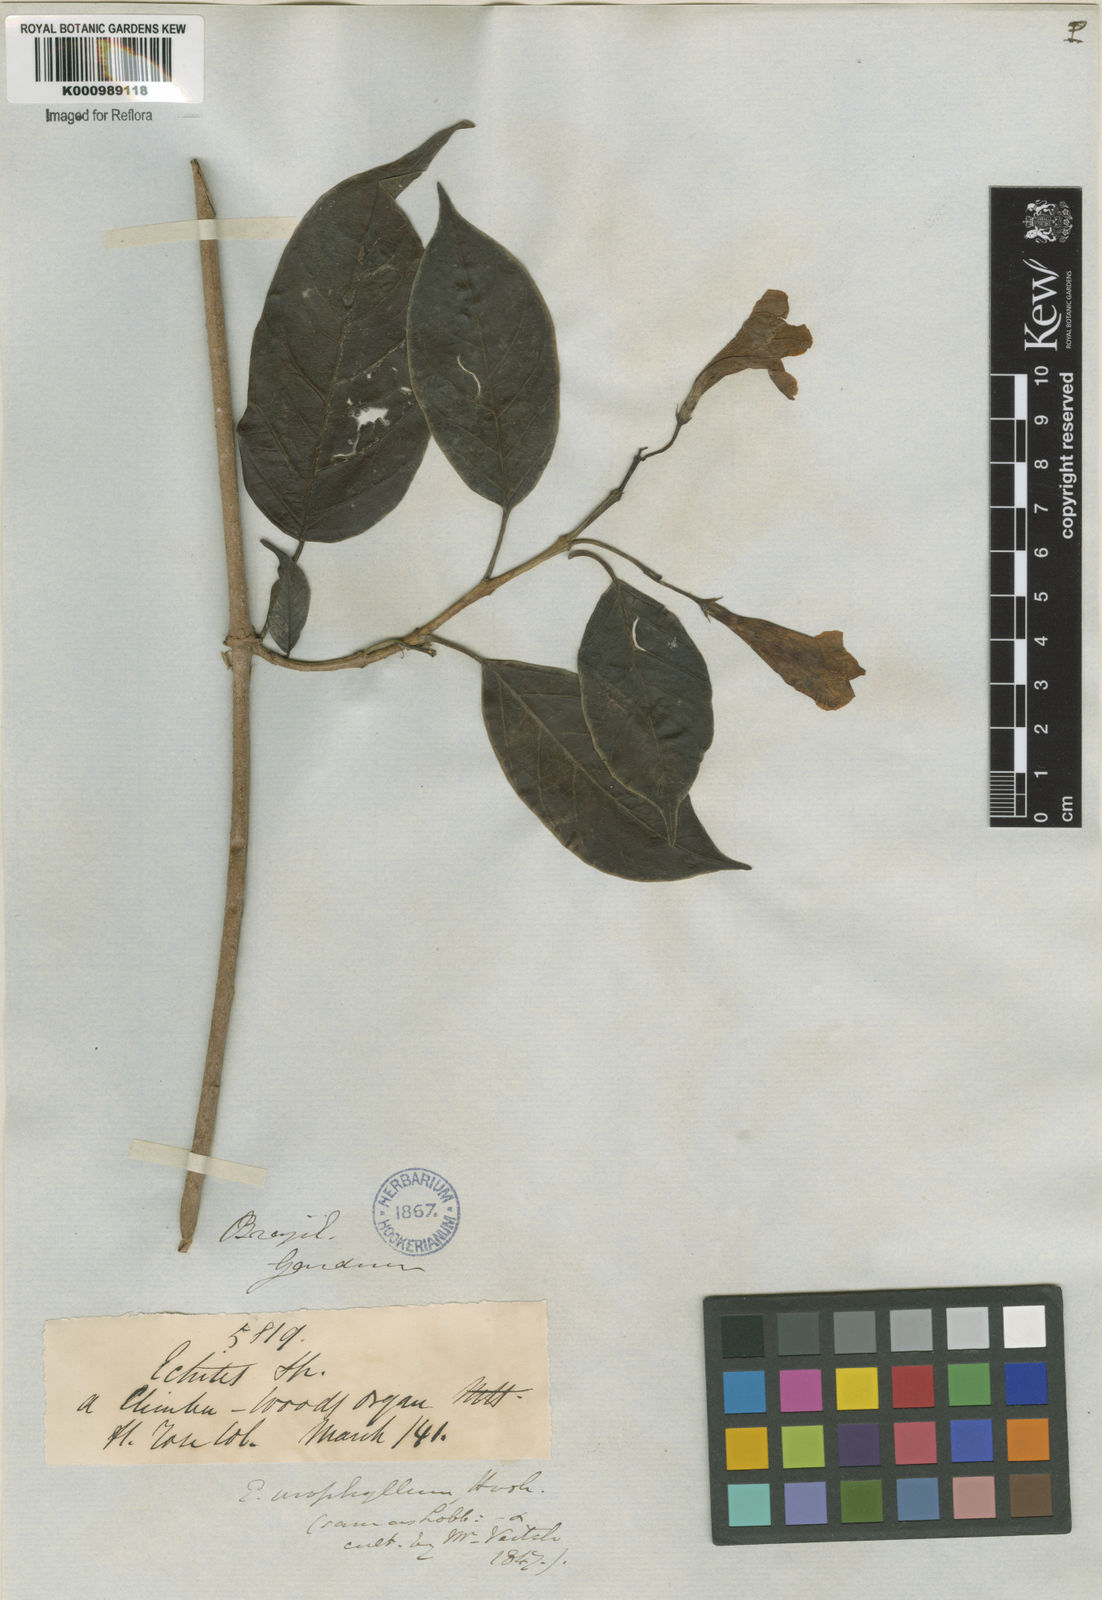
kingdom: Plantae
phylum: Tracheophyta
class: Magnoliopsida
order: Gentianales
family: Apocynaceae
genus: Mandevilla
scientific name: Mandevilla urophylla
